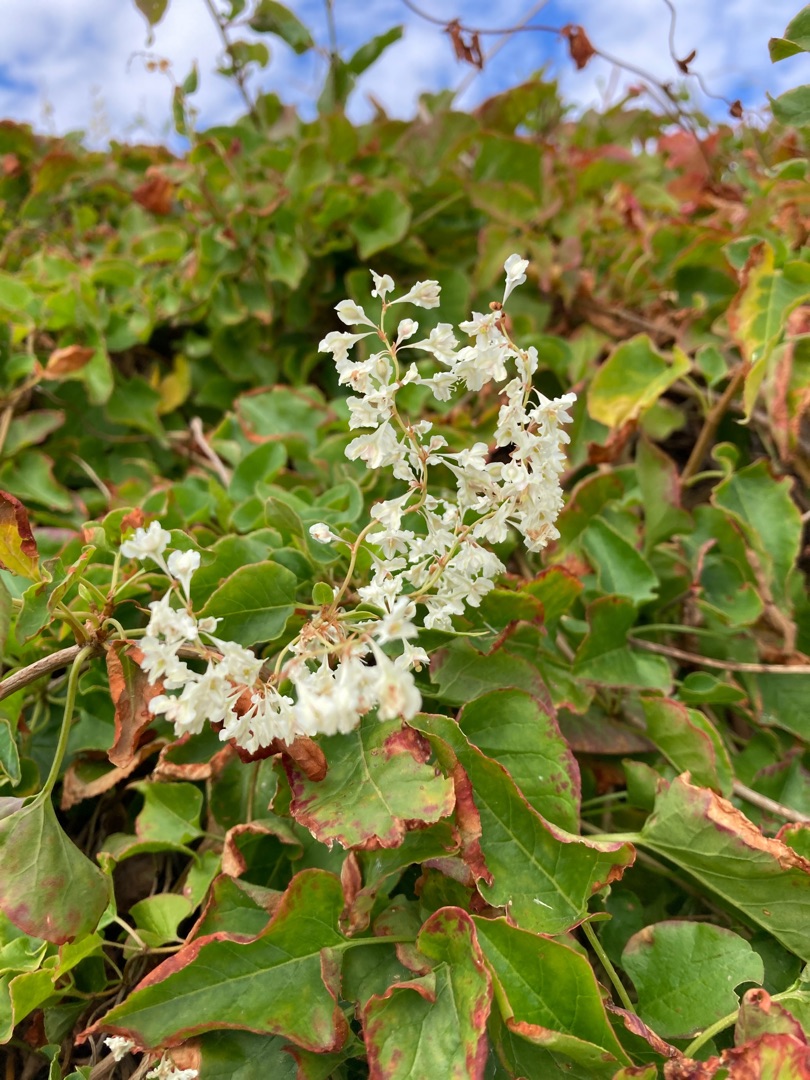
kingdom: Plantae
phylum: Tracheophyta
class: Magnoliopsida
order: Caryophyllales
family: Polygonaceae
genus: Fallopia
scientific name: Fallopia baldschuanica
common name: Sølvregn
